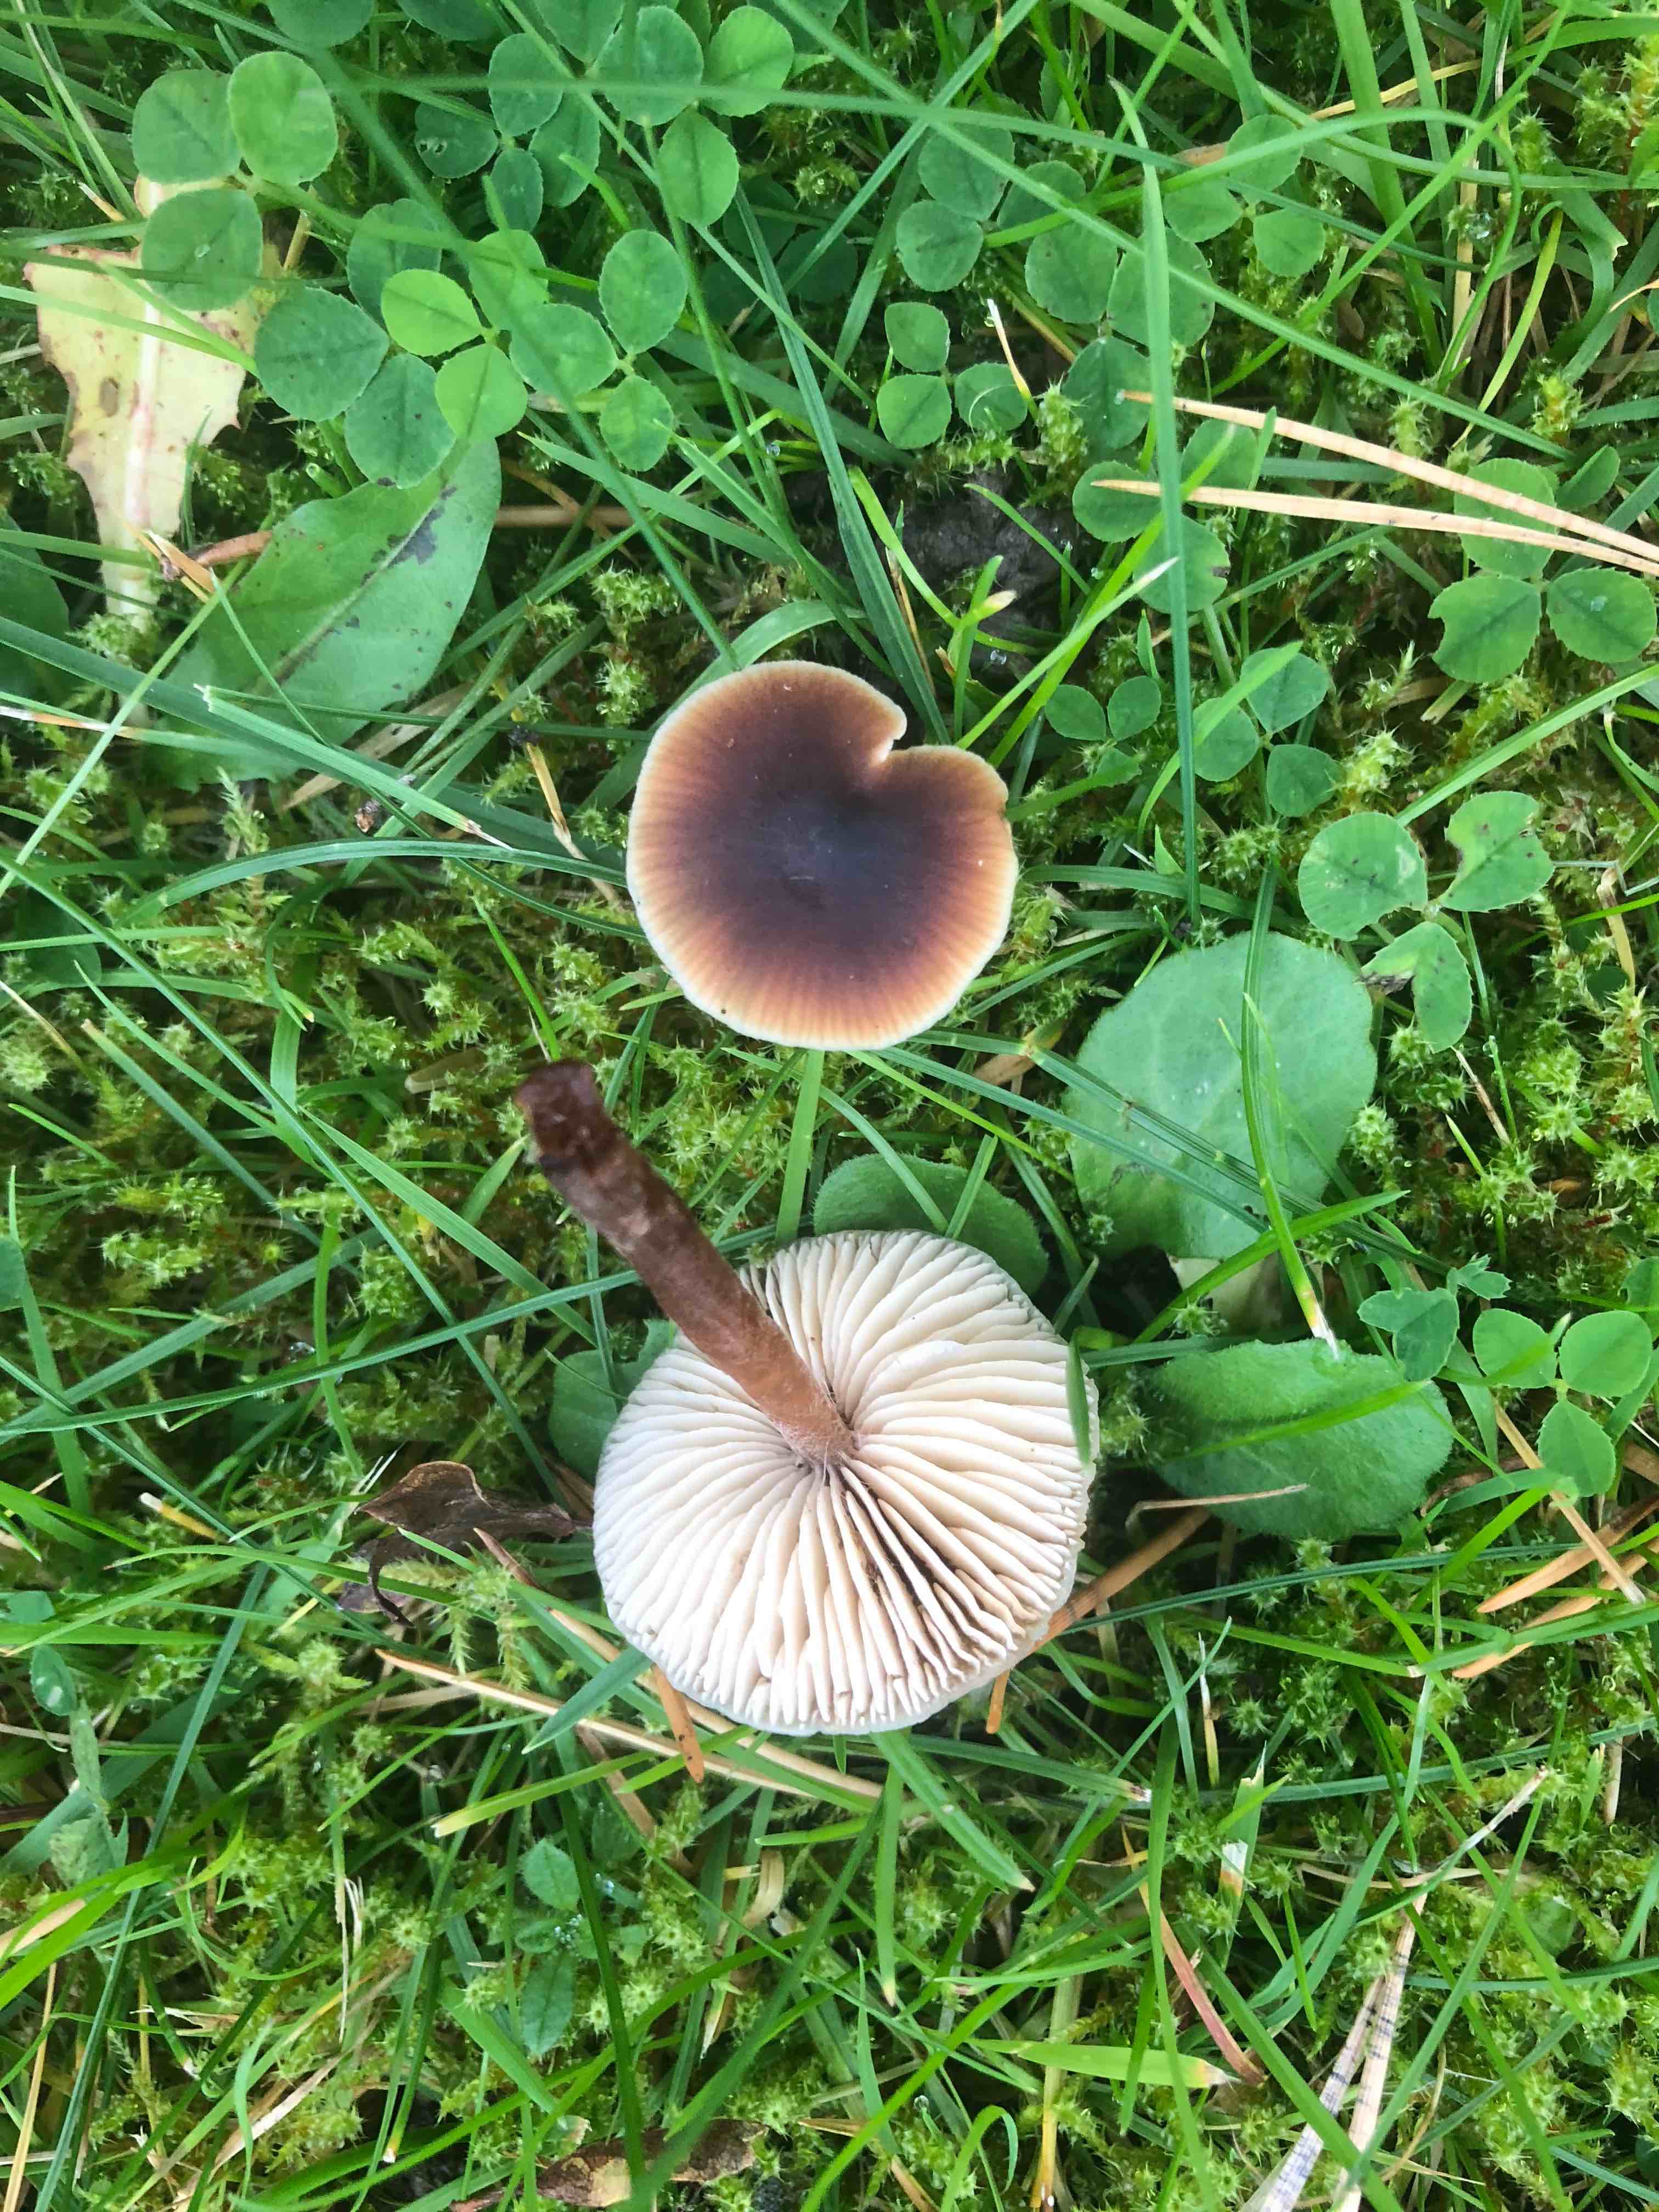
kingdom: Fungi
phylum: Basidiomycota
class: Agaricomycetes
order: Agaricales
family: Macrocystidiaceae
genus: Macrocystidia
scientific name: Macrocystidia cucumis
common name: agurkehat
